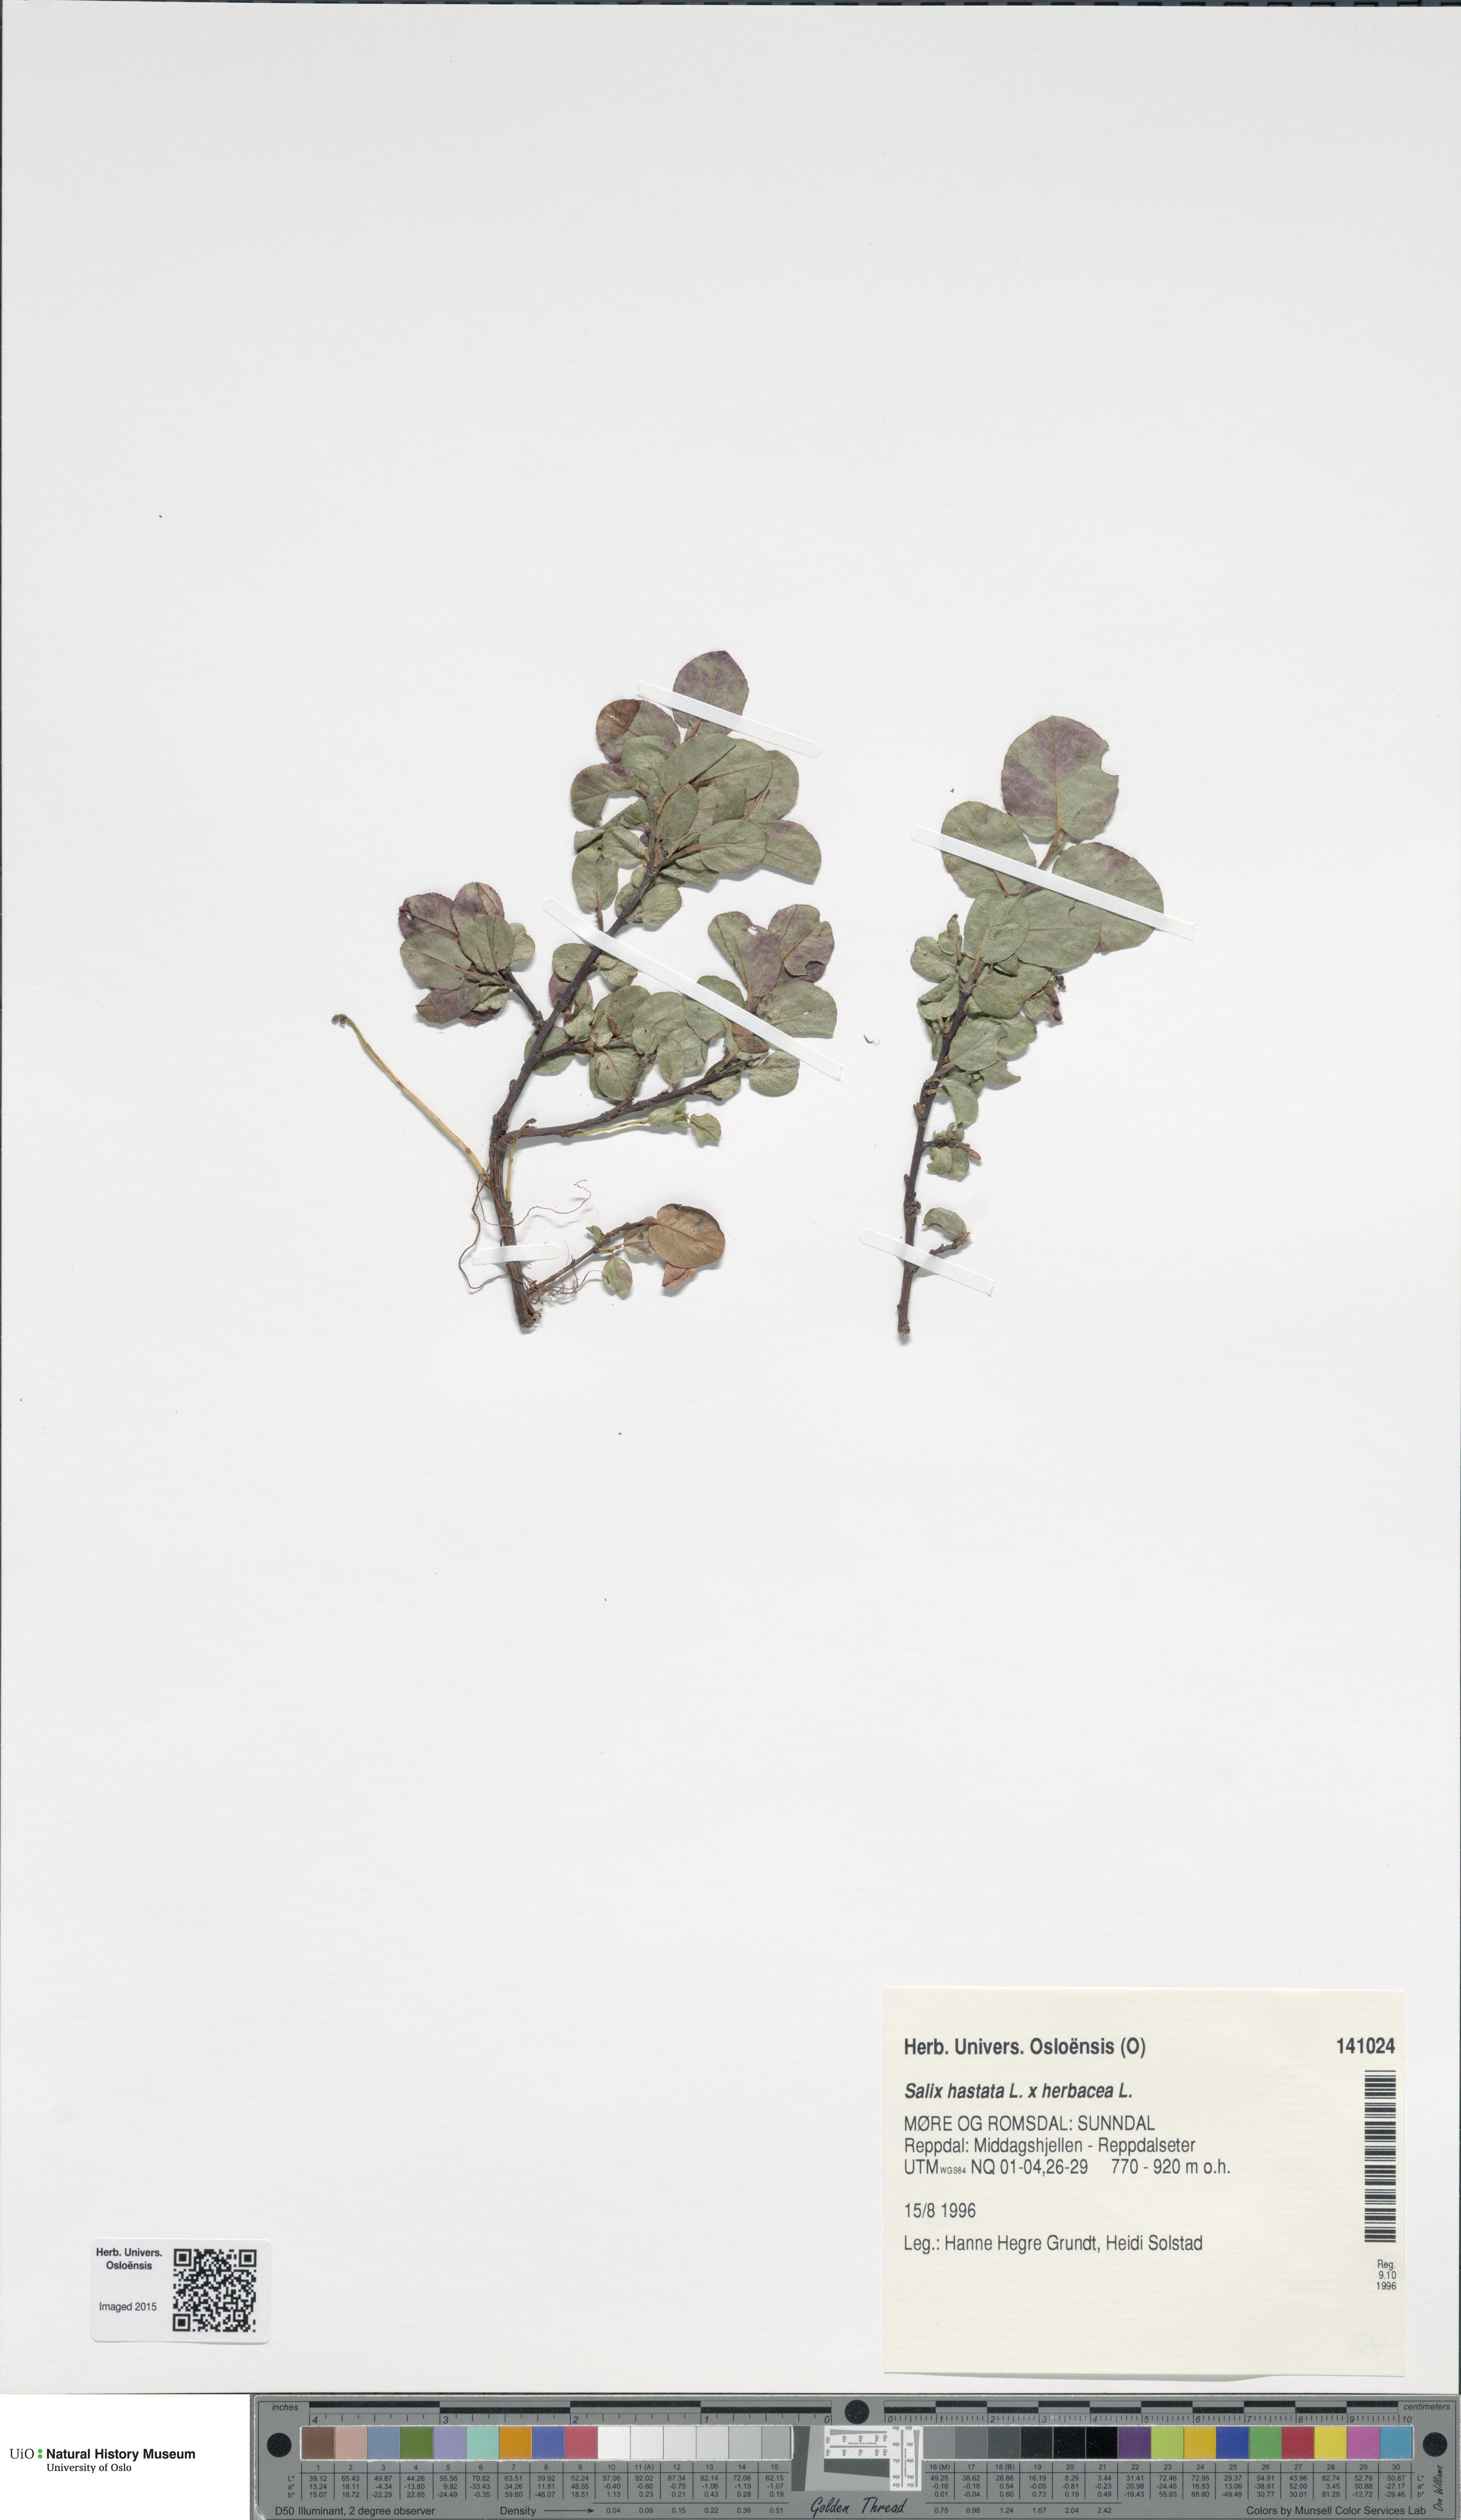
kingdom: Plantae
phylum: Tracheophyta
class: Magnoliopsida
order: Malpighiales
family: Salicaceae
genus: Salix
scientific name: Salix
